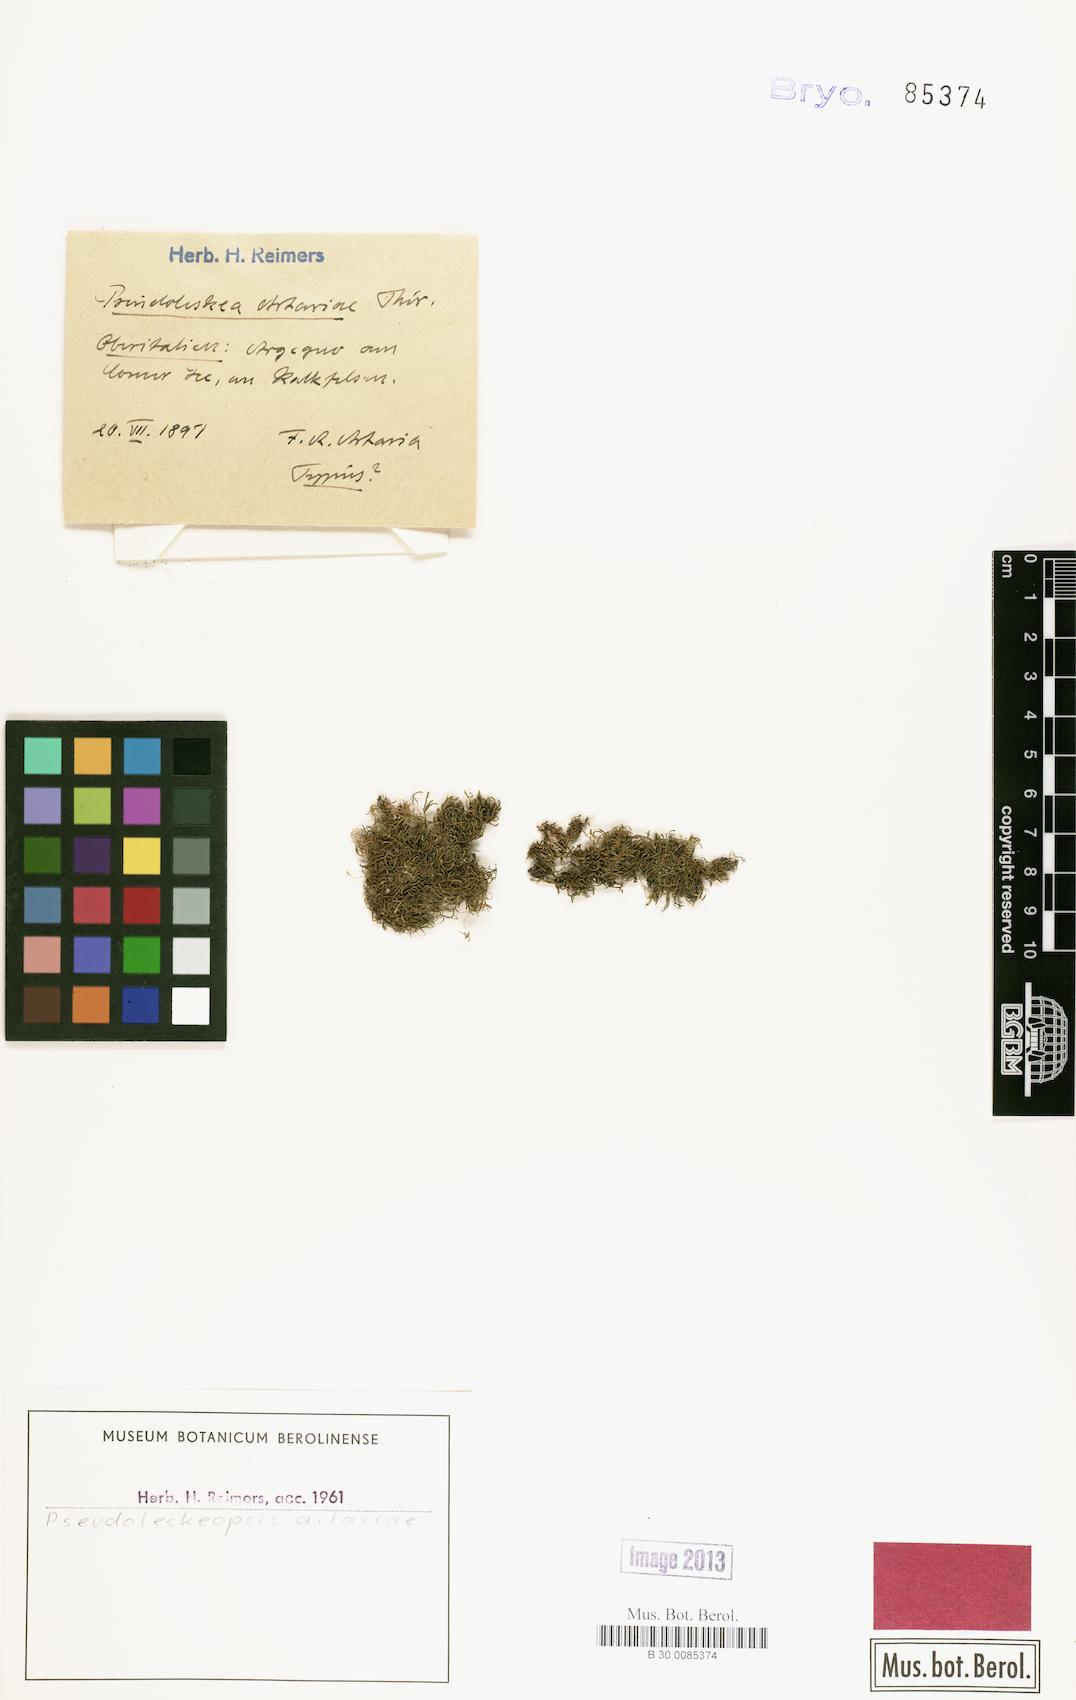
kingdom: Plantae
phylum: Bryophyta
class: Bryopsida
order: Hypnales
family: Leskeaceae
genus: Pseudoleskeopsis
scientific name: Pseudoleskeopsis artariae
